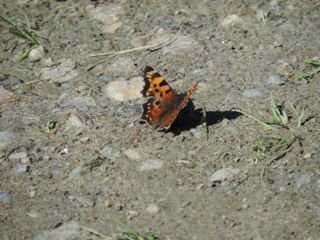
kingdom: Animalia
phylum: Arthropoda
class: Insecta
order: Lepidoptera
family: Nymphalidae
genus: Polygonia
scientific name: Polygonia faunus
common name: Green Comma
